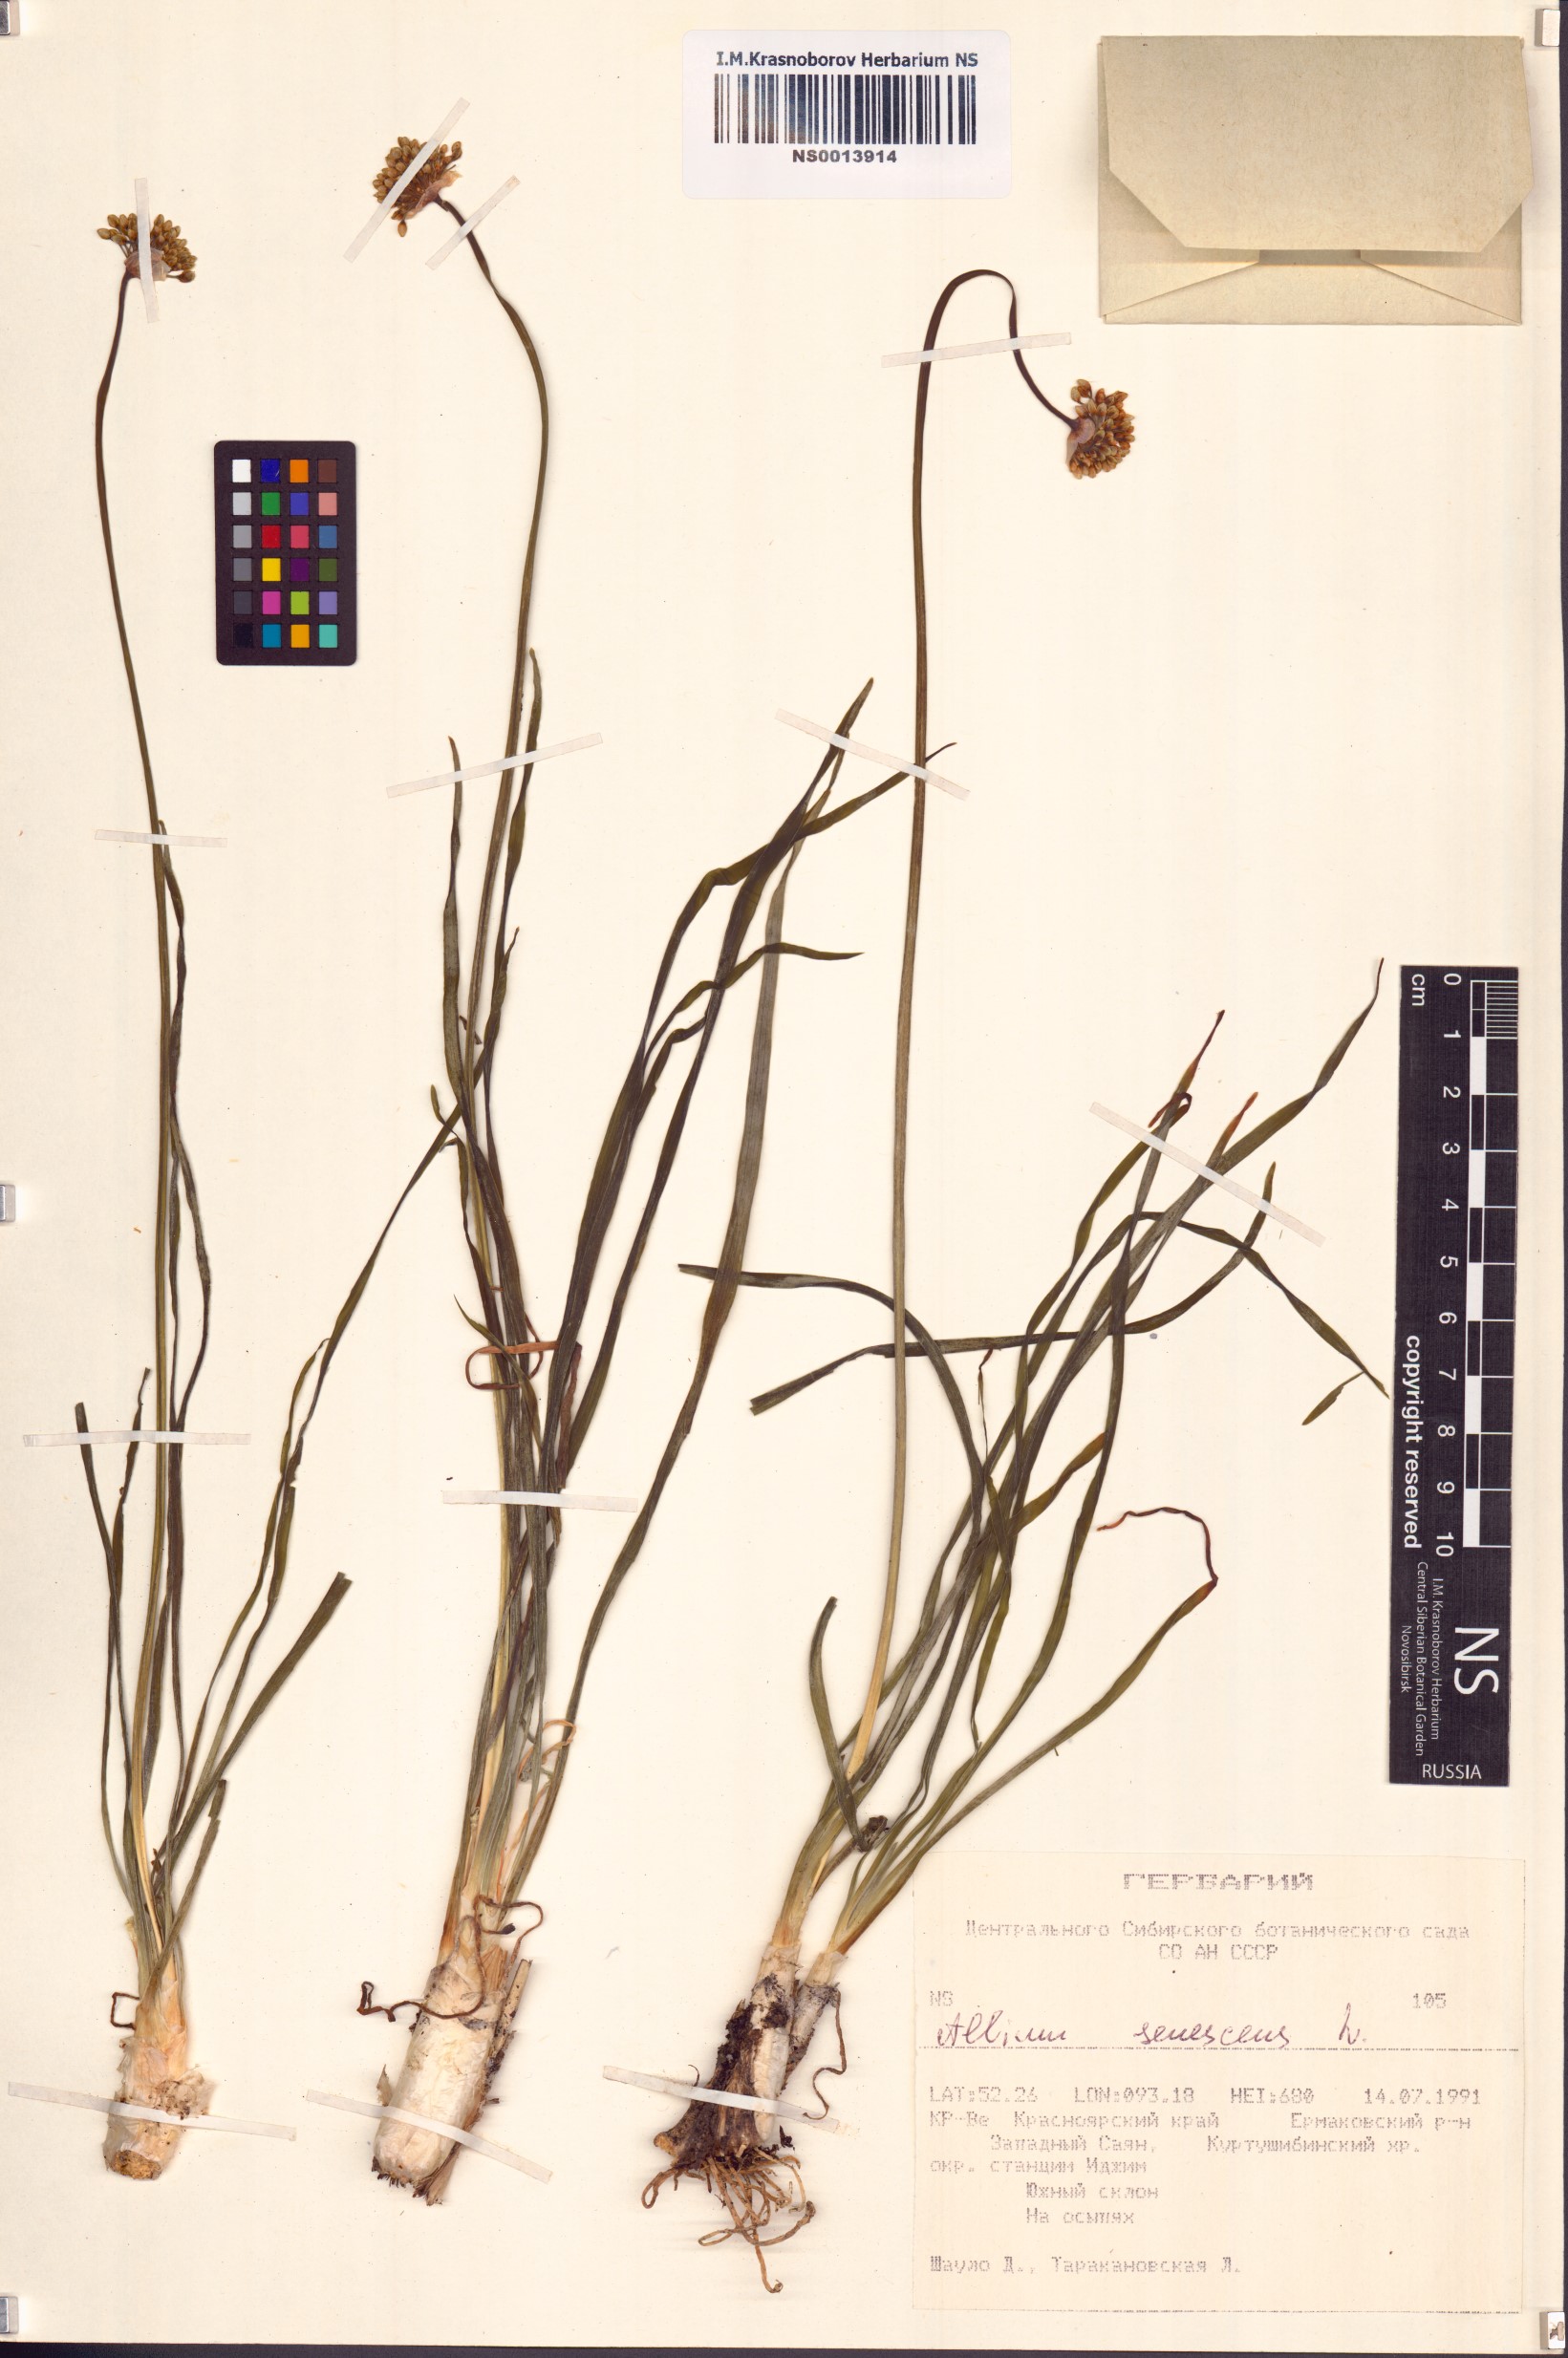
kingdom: Plantae
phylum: Tracheophyta
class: Liliopsida
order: Asparagales
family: Amaryllidaceae
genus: Allium
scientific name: Allium senescens
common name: German garlic
